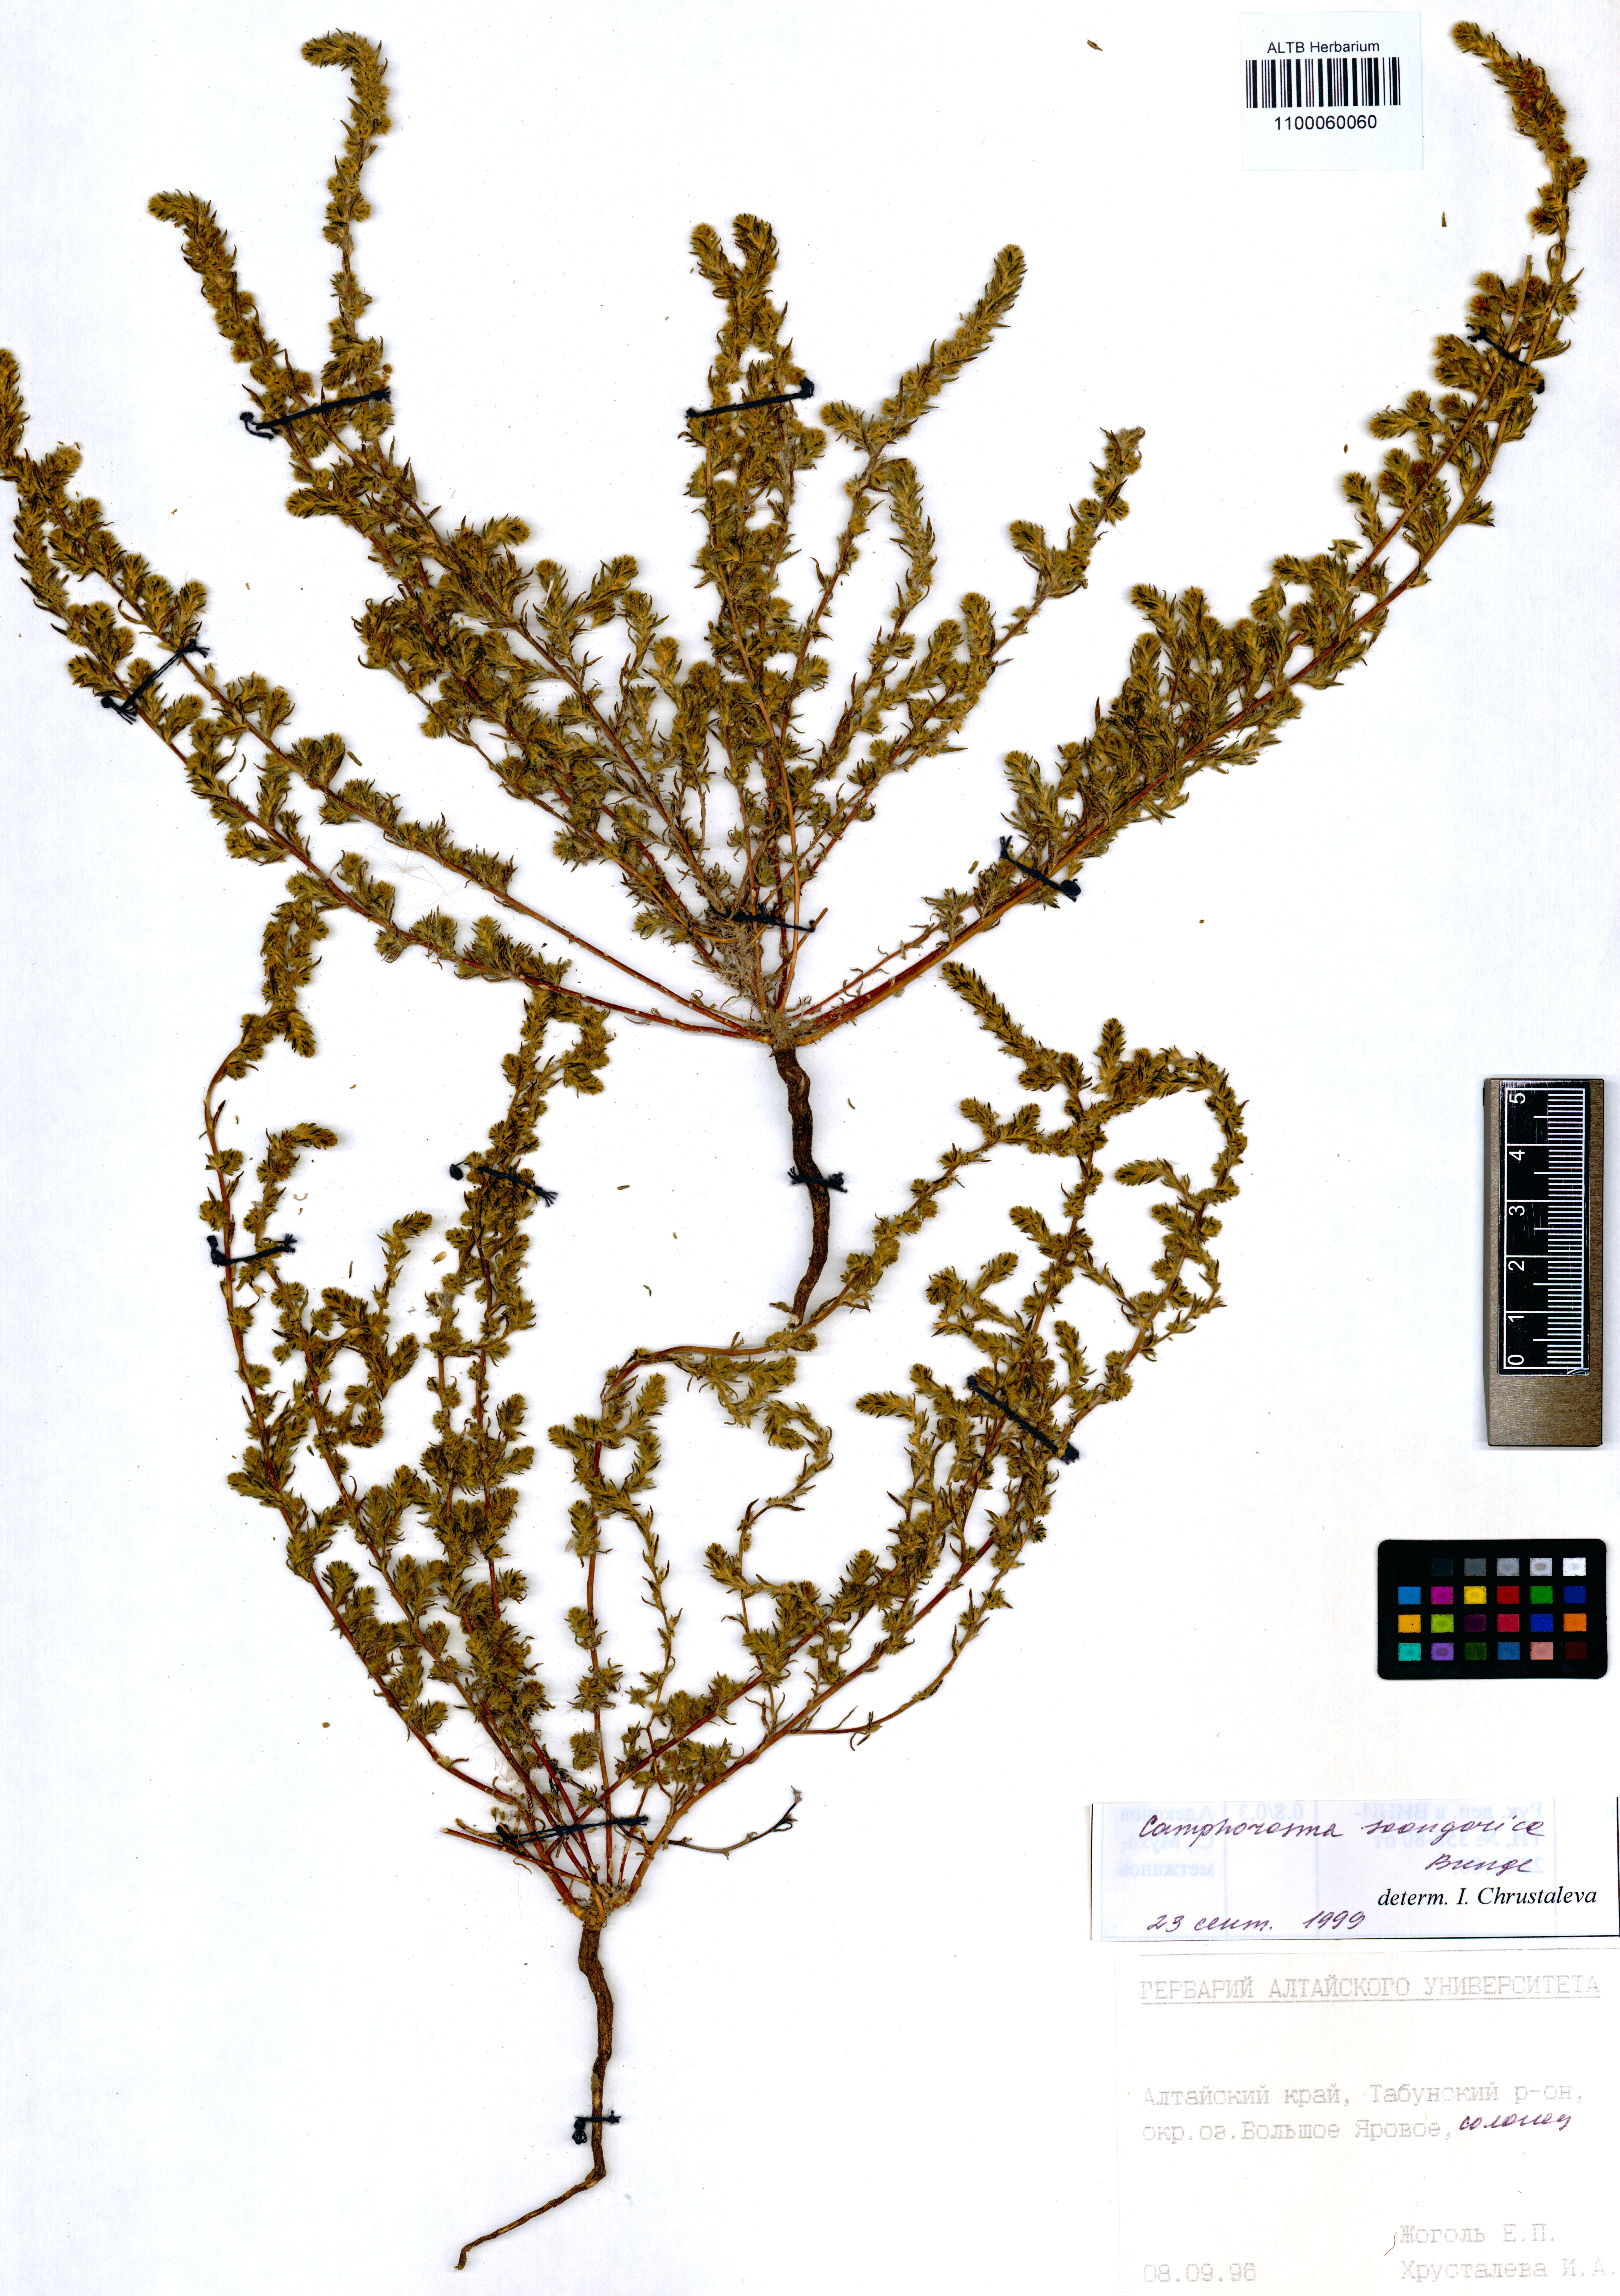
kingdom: Plantae
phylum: Tracheophyta
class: Magnoliopsida
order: Caryophyllales
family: Amaranthaceae
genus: Camphorosma
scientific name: Camphorosma songorica
